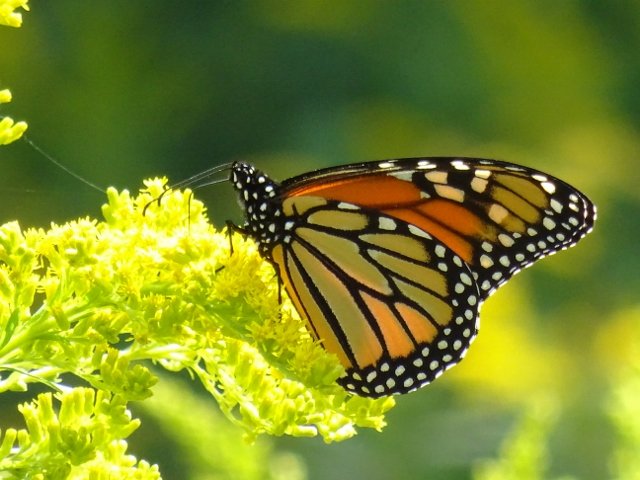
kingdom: Animalia
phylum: Arthropoda
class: Insecta
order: Lepidoptera
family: Nymphalidae
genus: Danaus
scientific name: Danaus plexippus
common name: Monarch
